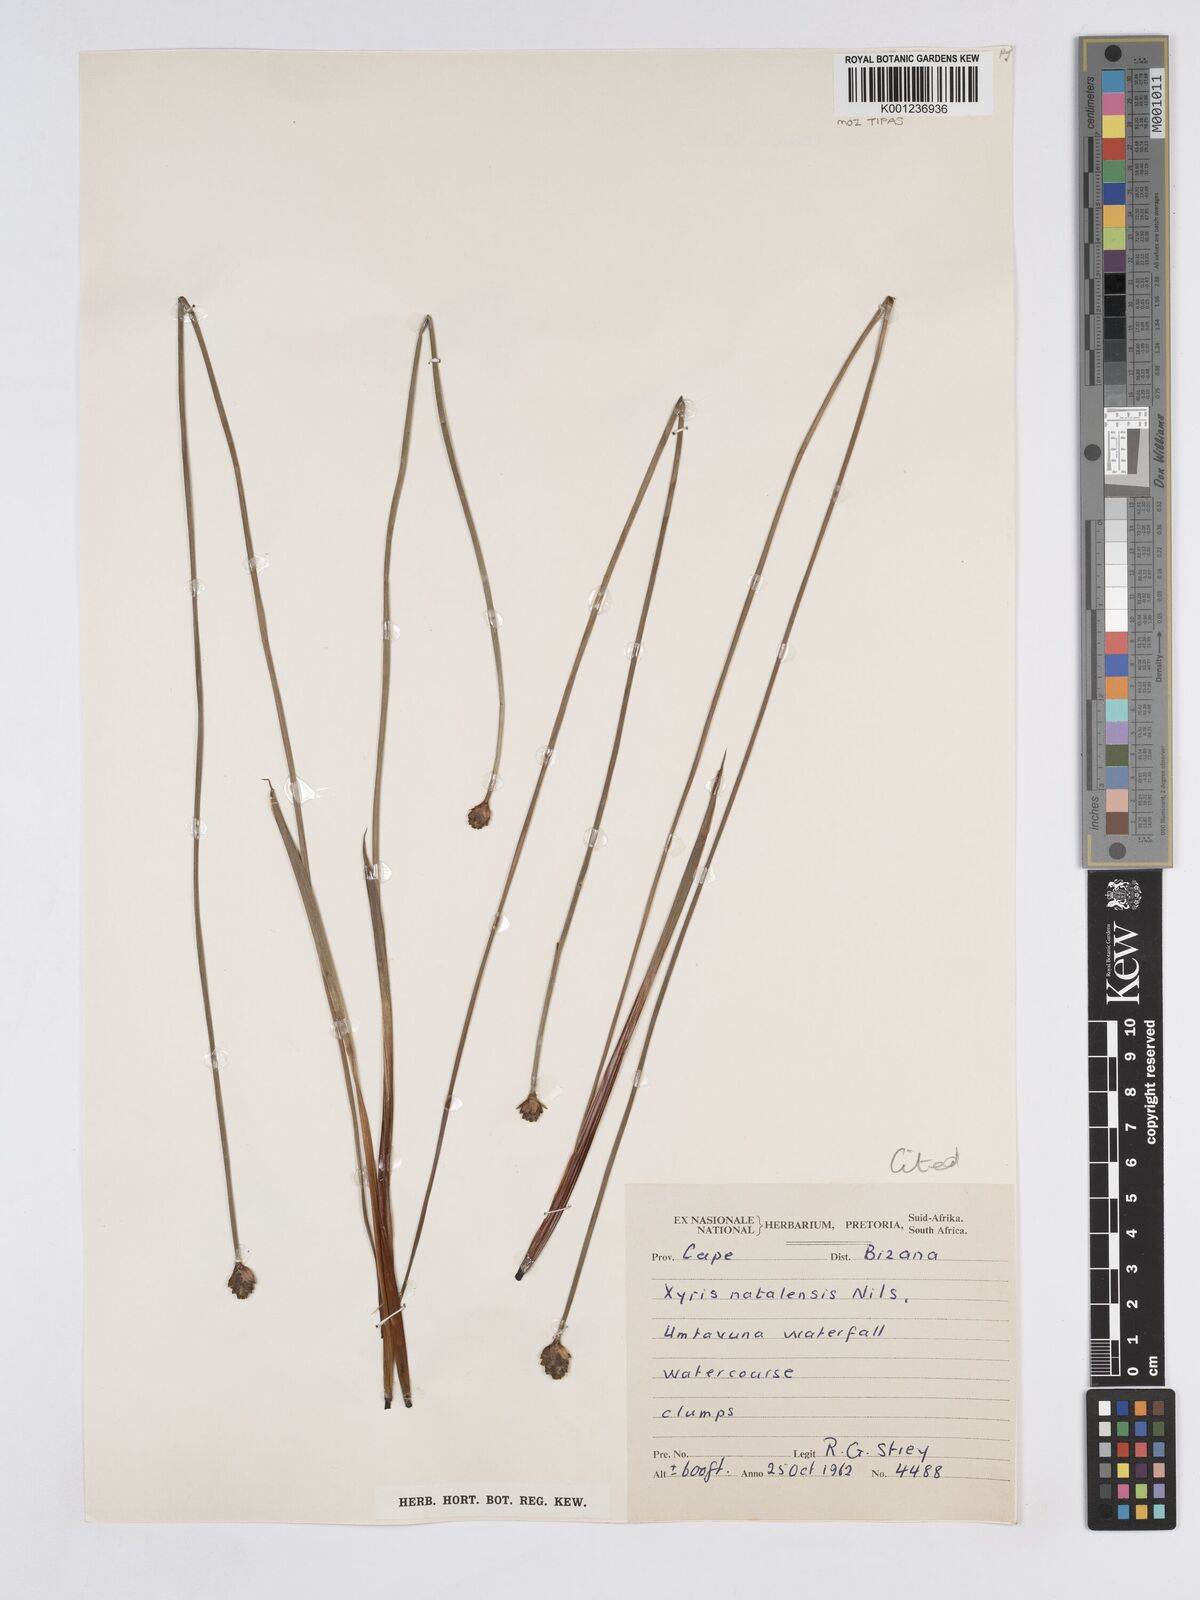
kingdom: Plantae
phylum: Tracheophyta
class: Liliopsida
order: Poales
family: Xyridaceae
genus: Xyris
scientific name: Xyris natalensis
